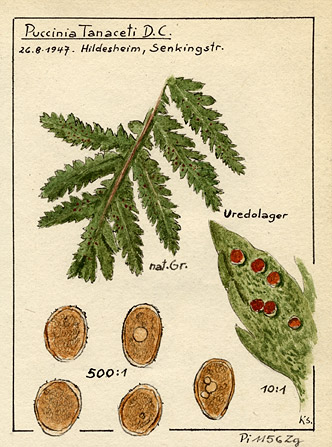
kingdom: Fungi
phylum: Basidiomycota
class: Pucciniomycetes
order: Pucciniales
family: Pucciniaceae
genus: Puccinia
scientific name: Puccinia tanaceti
